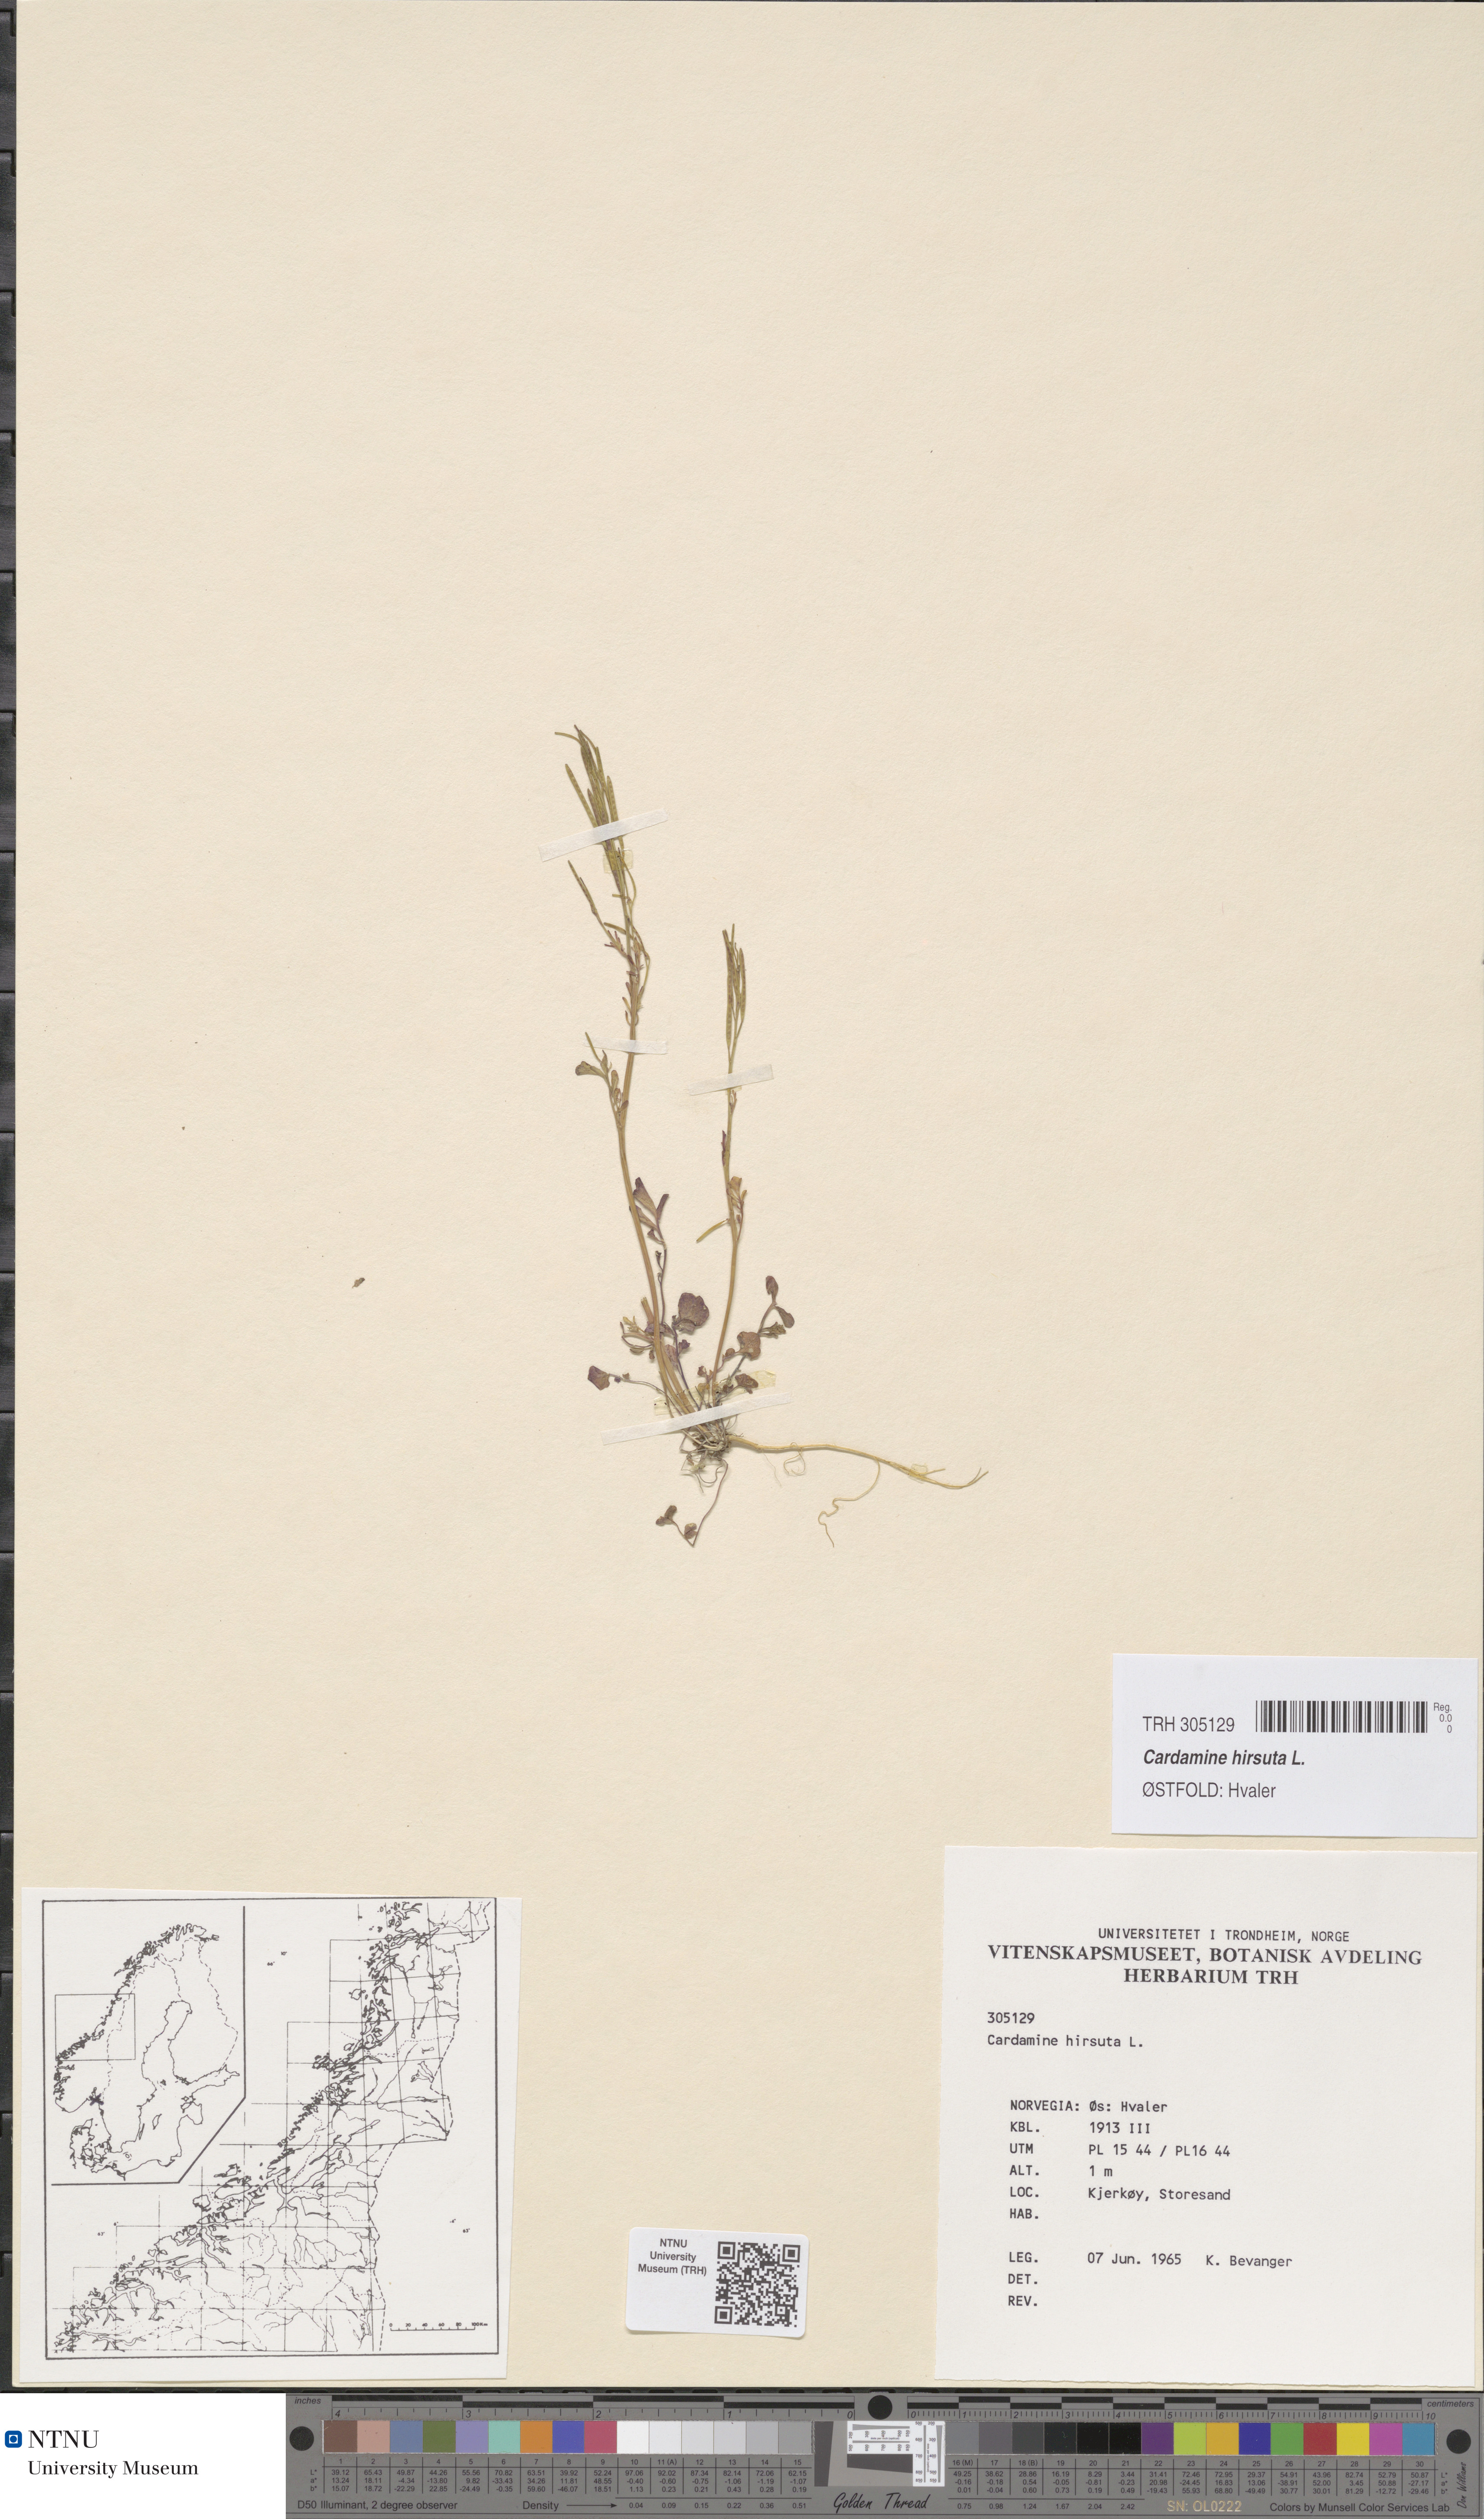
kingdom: Plantae
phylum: Tracheophyta
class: Magnoliopsida
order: Brassicales
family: Brassicaceae
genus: Cardamine
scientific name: Cardamine hirsuta
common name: Hairy bittercress
